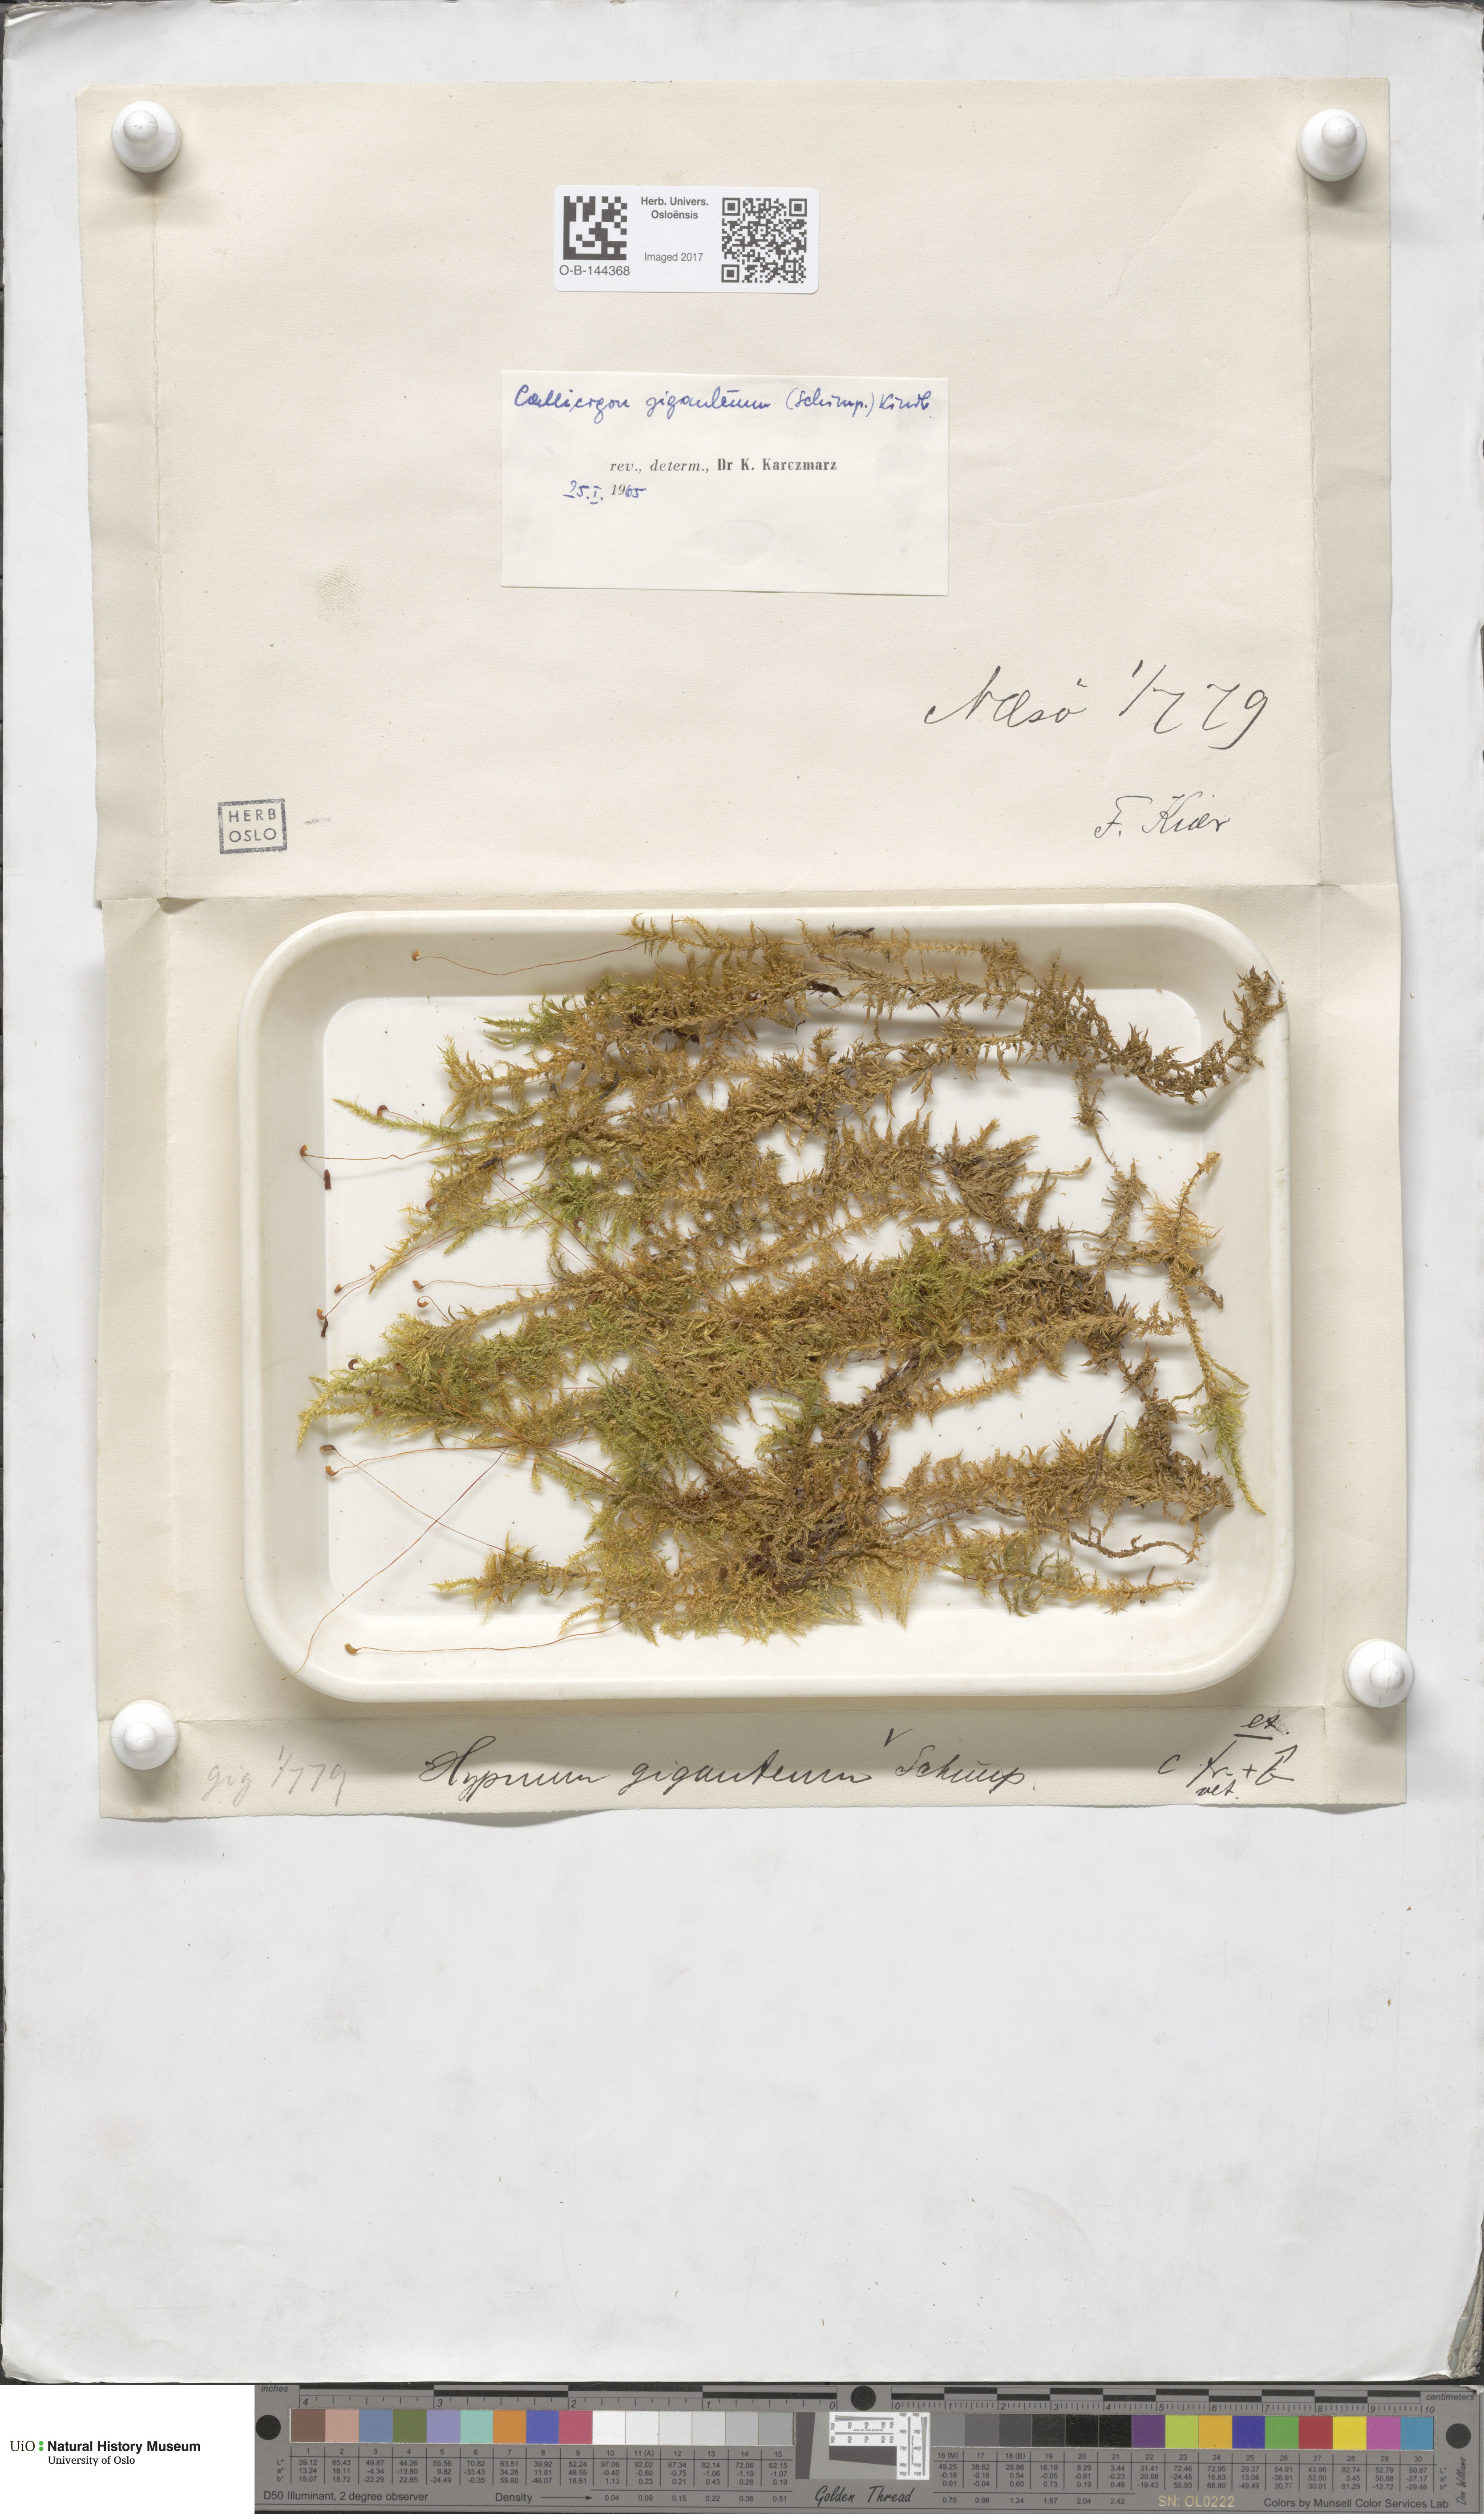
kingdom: Plantae
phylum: Bryophyta
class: Bryopsida
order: Hypnales
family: Calliergonaceae
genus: Calliergon
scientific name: Calliergon giganteum
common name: Giant spear moss
